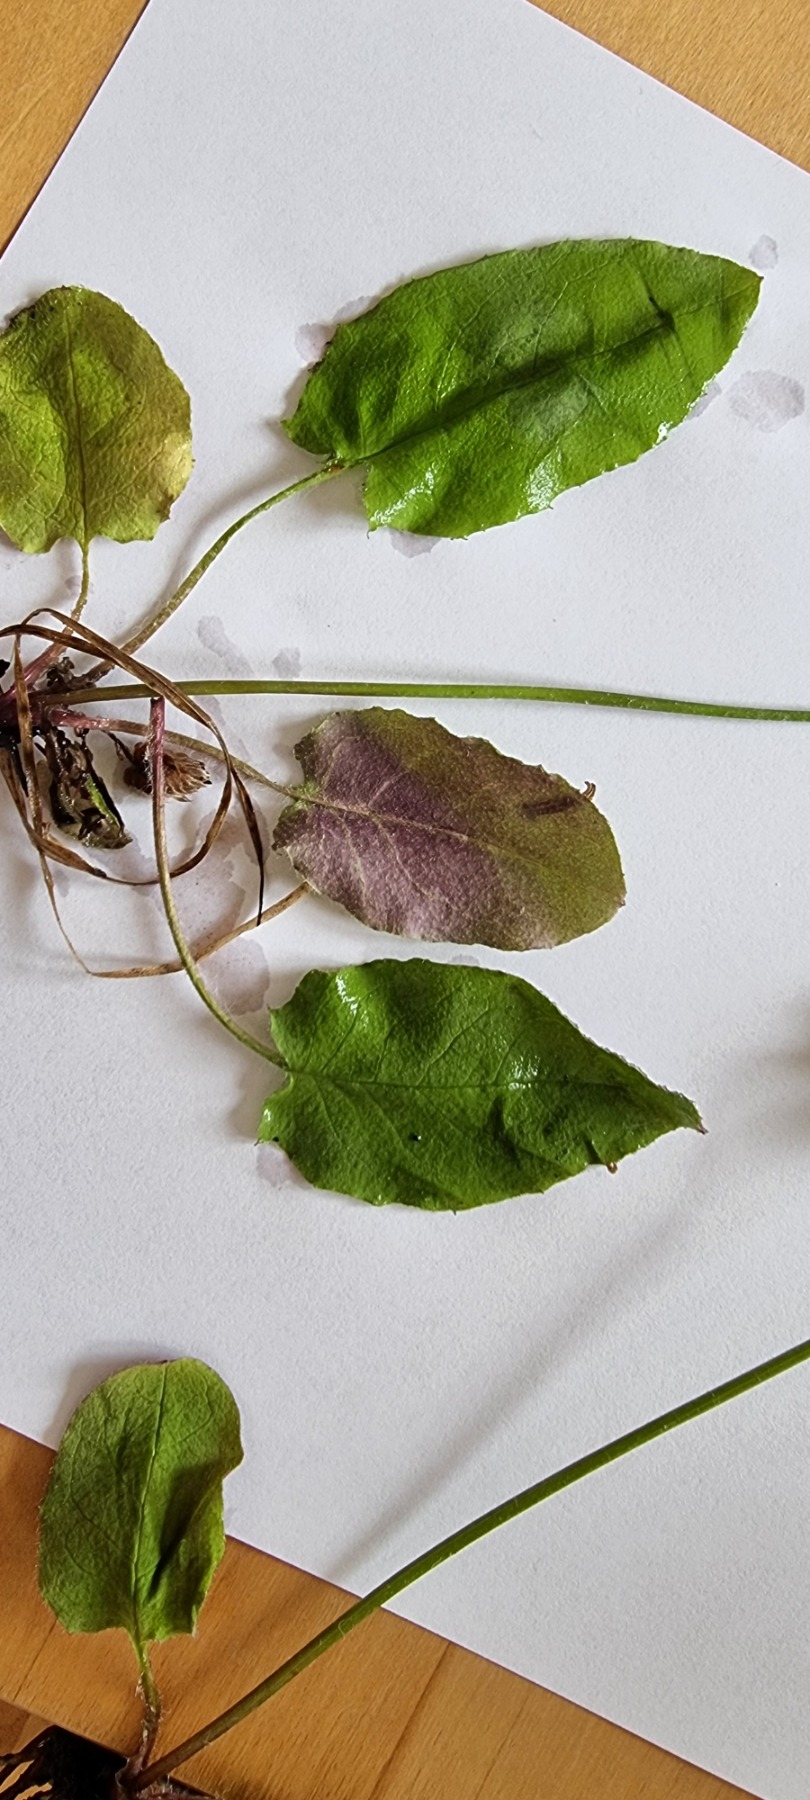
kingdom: Plantae
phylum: Tracheophyta
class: Magnoliopsida
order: Asterales
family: Asteraceae
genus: Hieracium
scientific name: Hieracium
